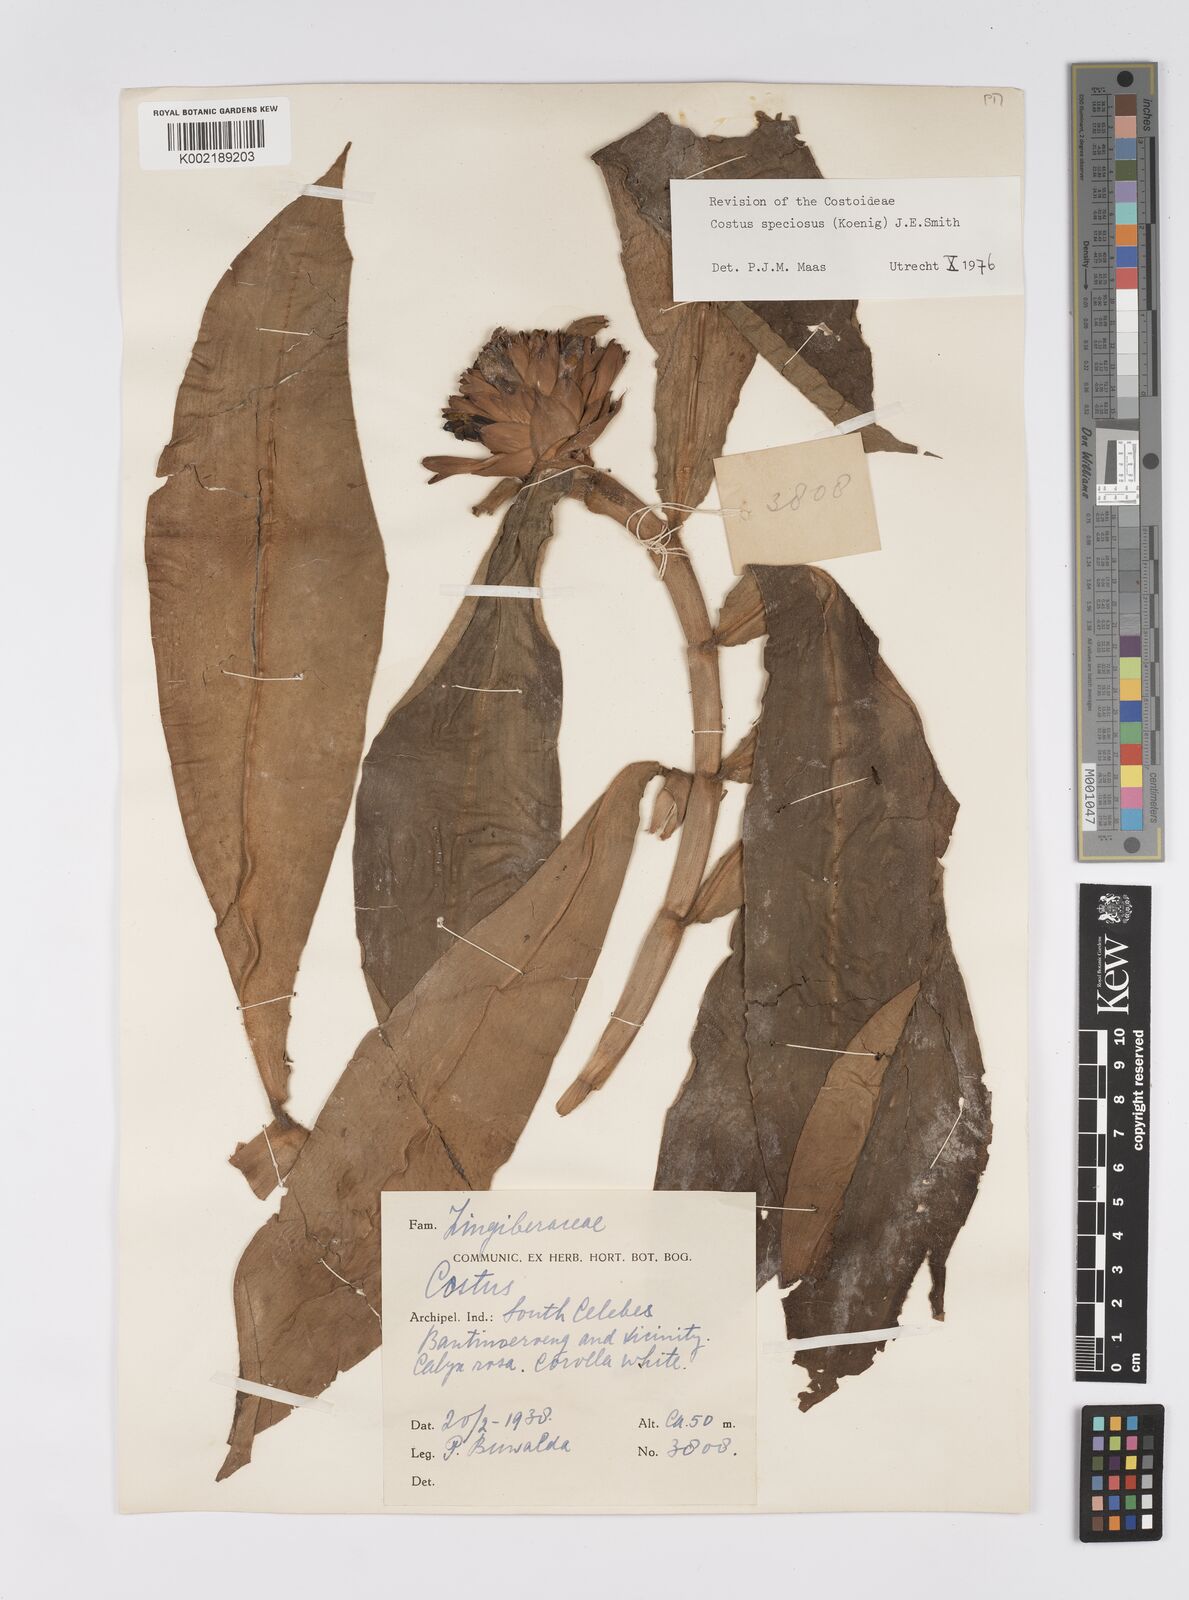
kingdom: Plantae
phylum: Tracheophyta
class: Liliopsida
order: Zingiberales
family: Costaceae
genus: Hellenia
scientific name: Hellenia speciosa
